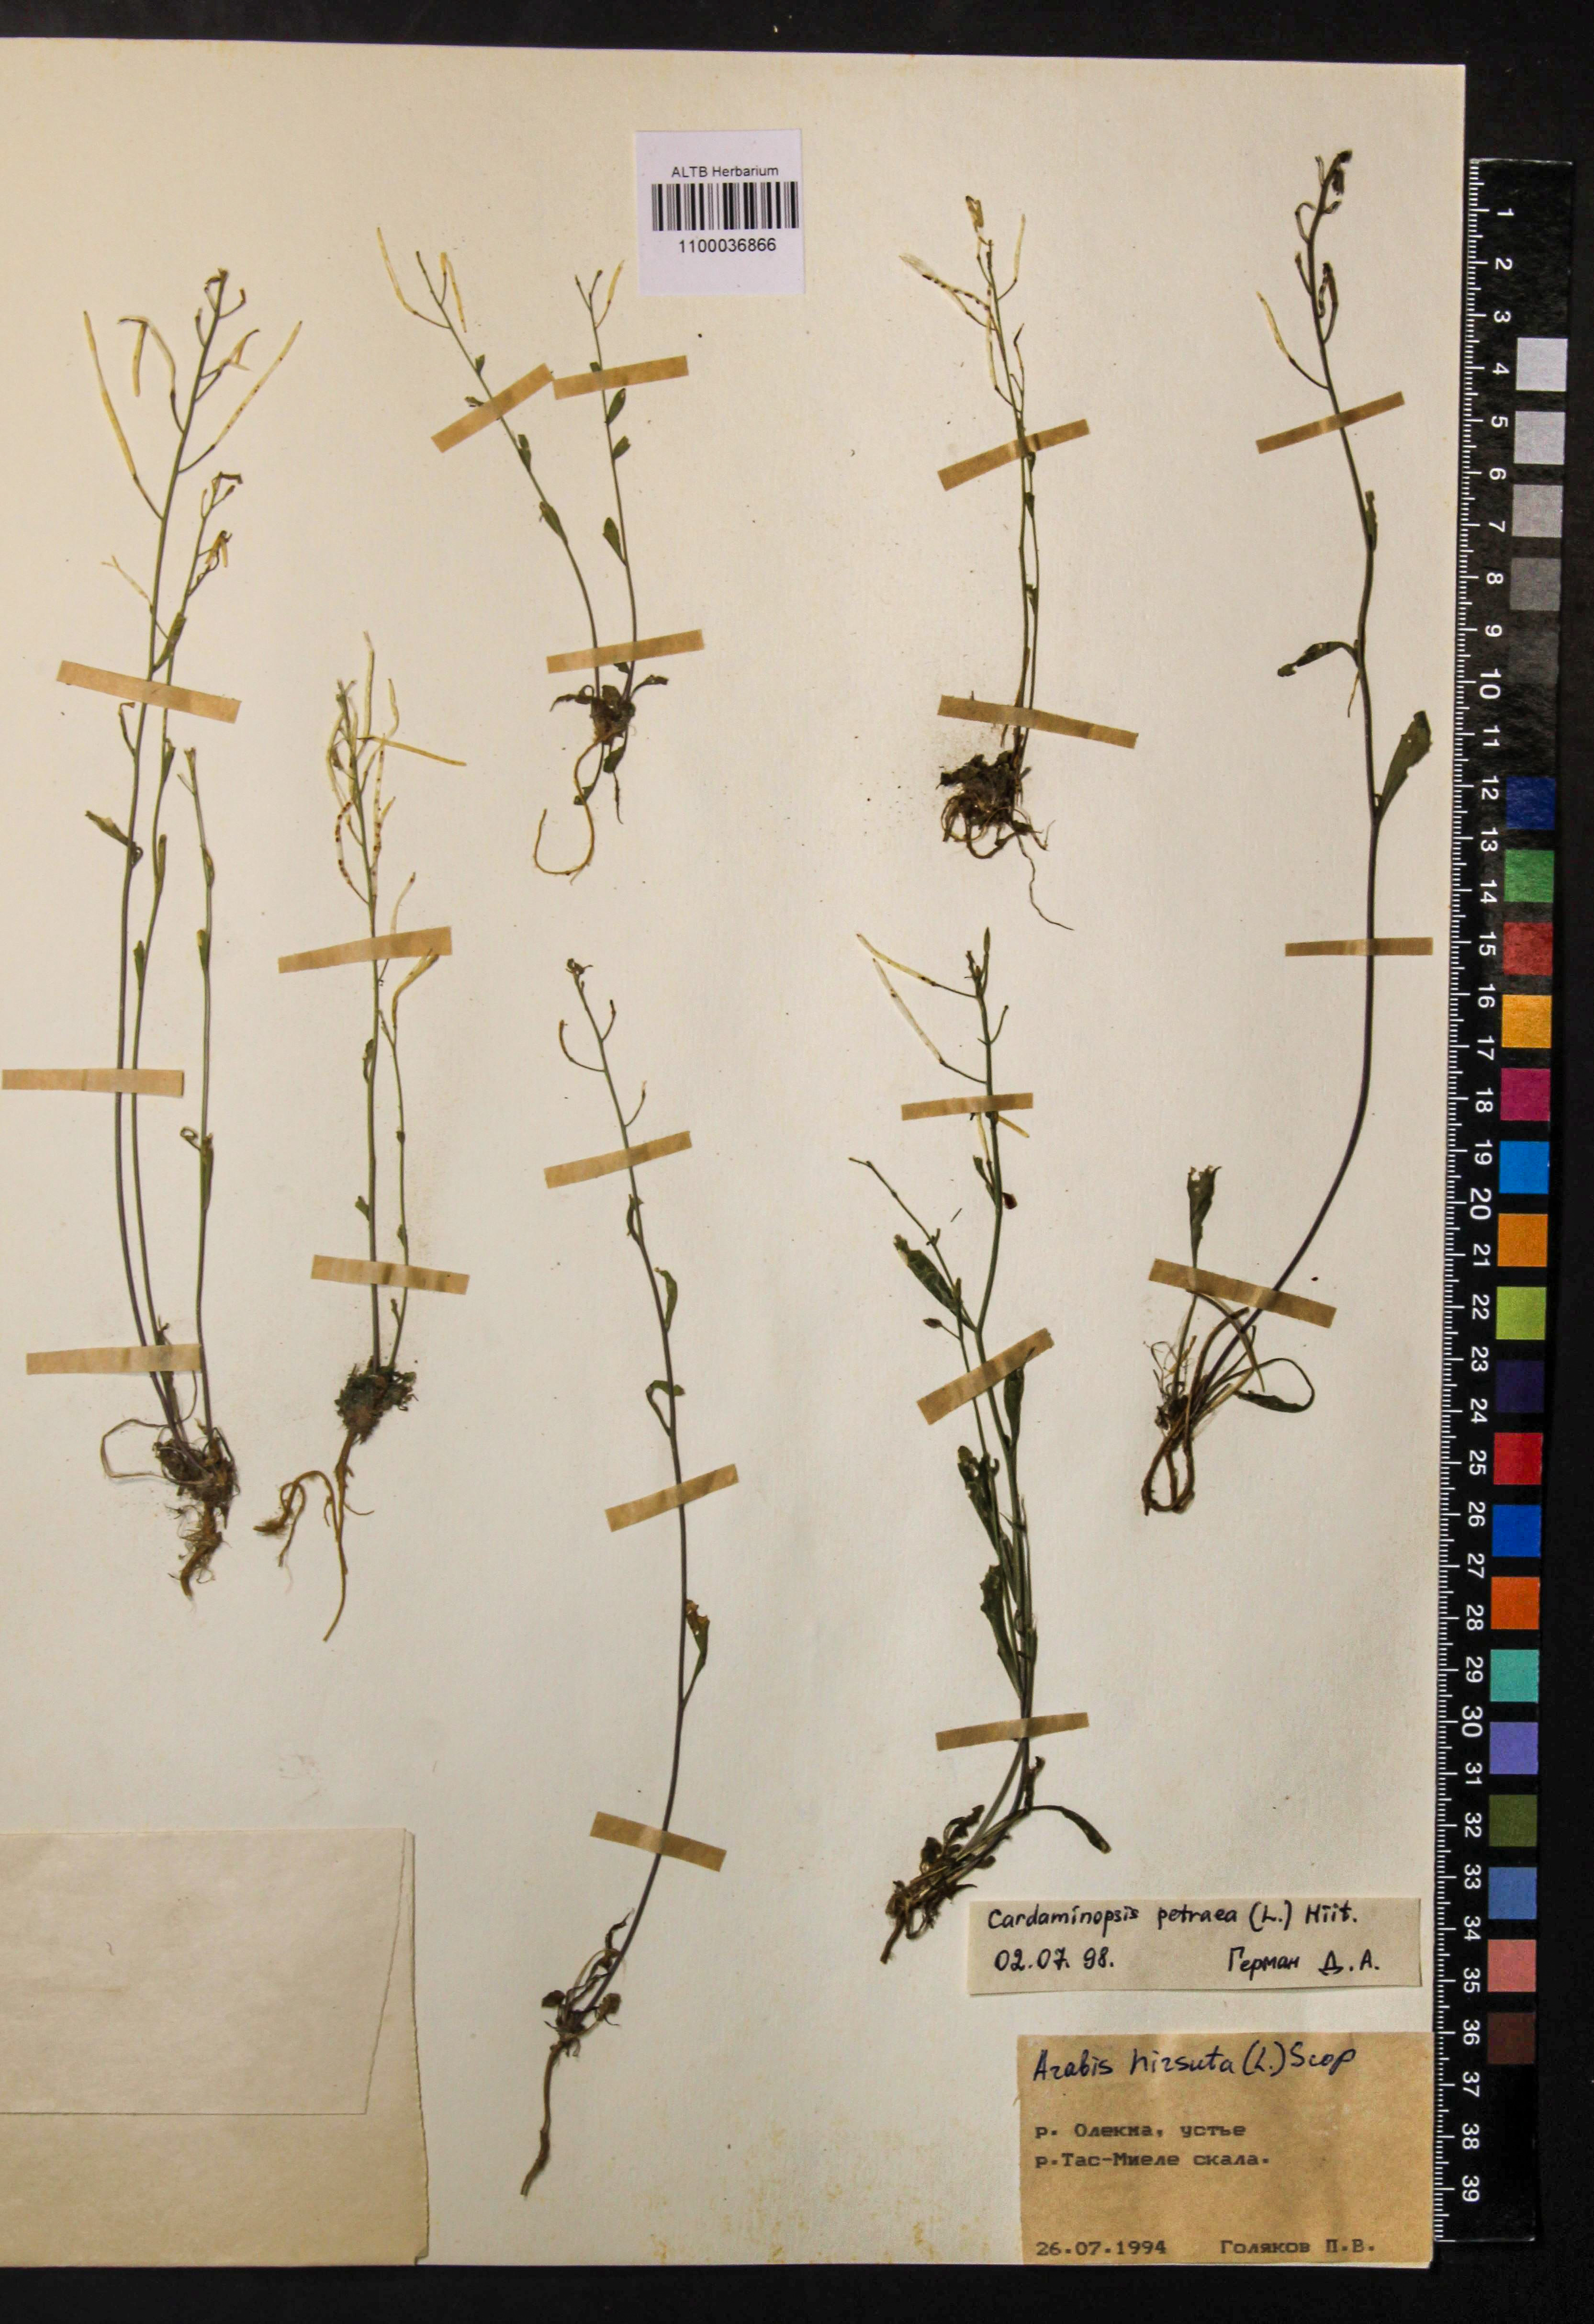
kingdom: Plantae
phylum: Tracheophyta
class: Magnoliopsida
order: Brassicales
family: Brassicaceae
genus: Arabidopsis
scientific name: Arabidopsis lyrata
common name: Lyrate rockcress
